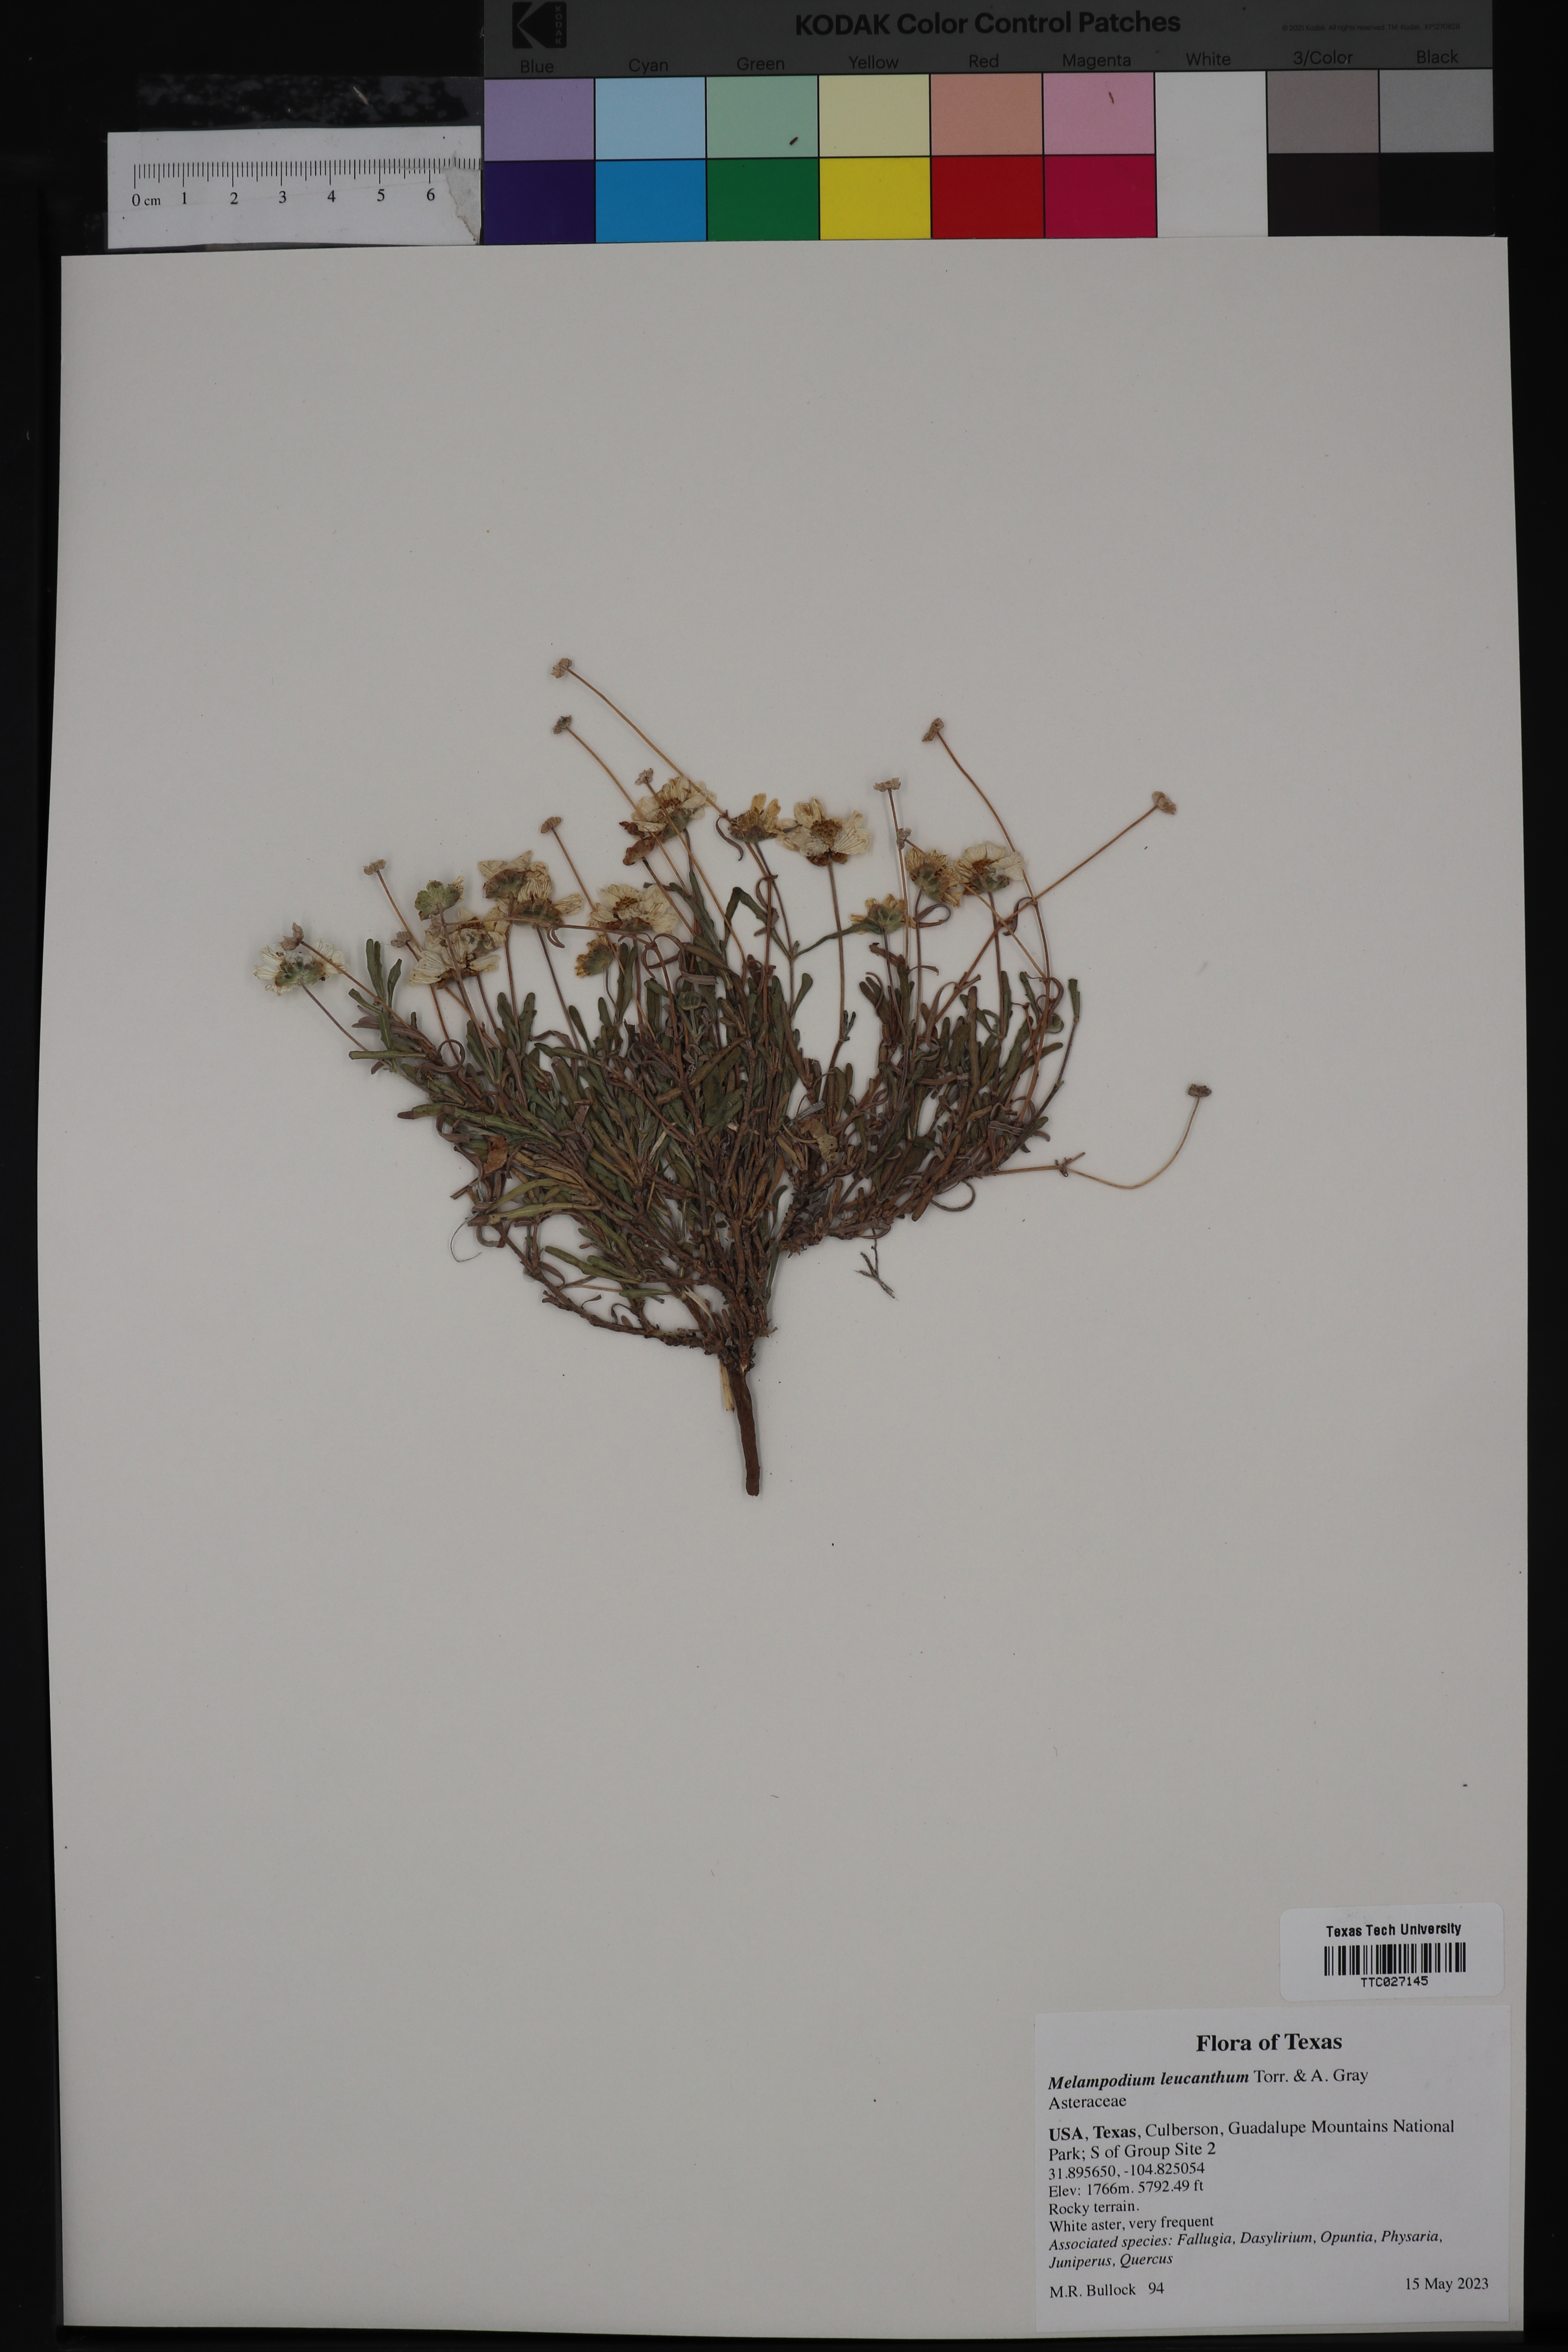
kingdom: Plantae
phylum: Tracheophyta
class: Magnoliopsida
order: Asterales
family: Asteraceae
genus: Melampodium
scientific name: Melampodium leucanthum
